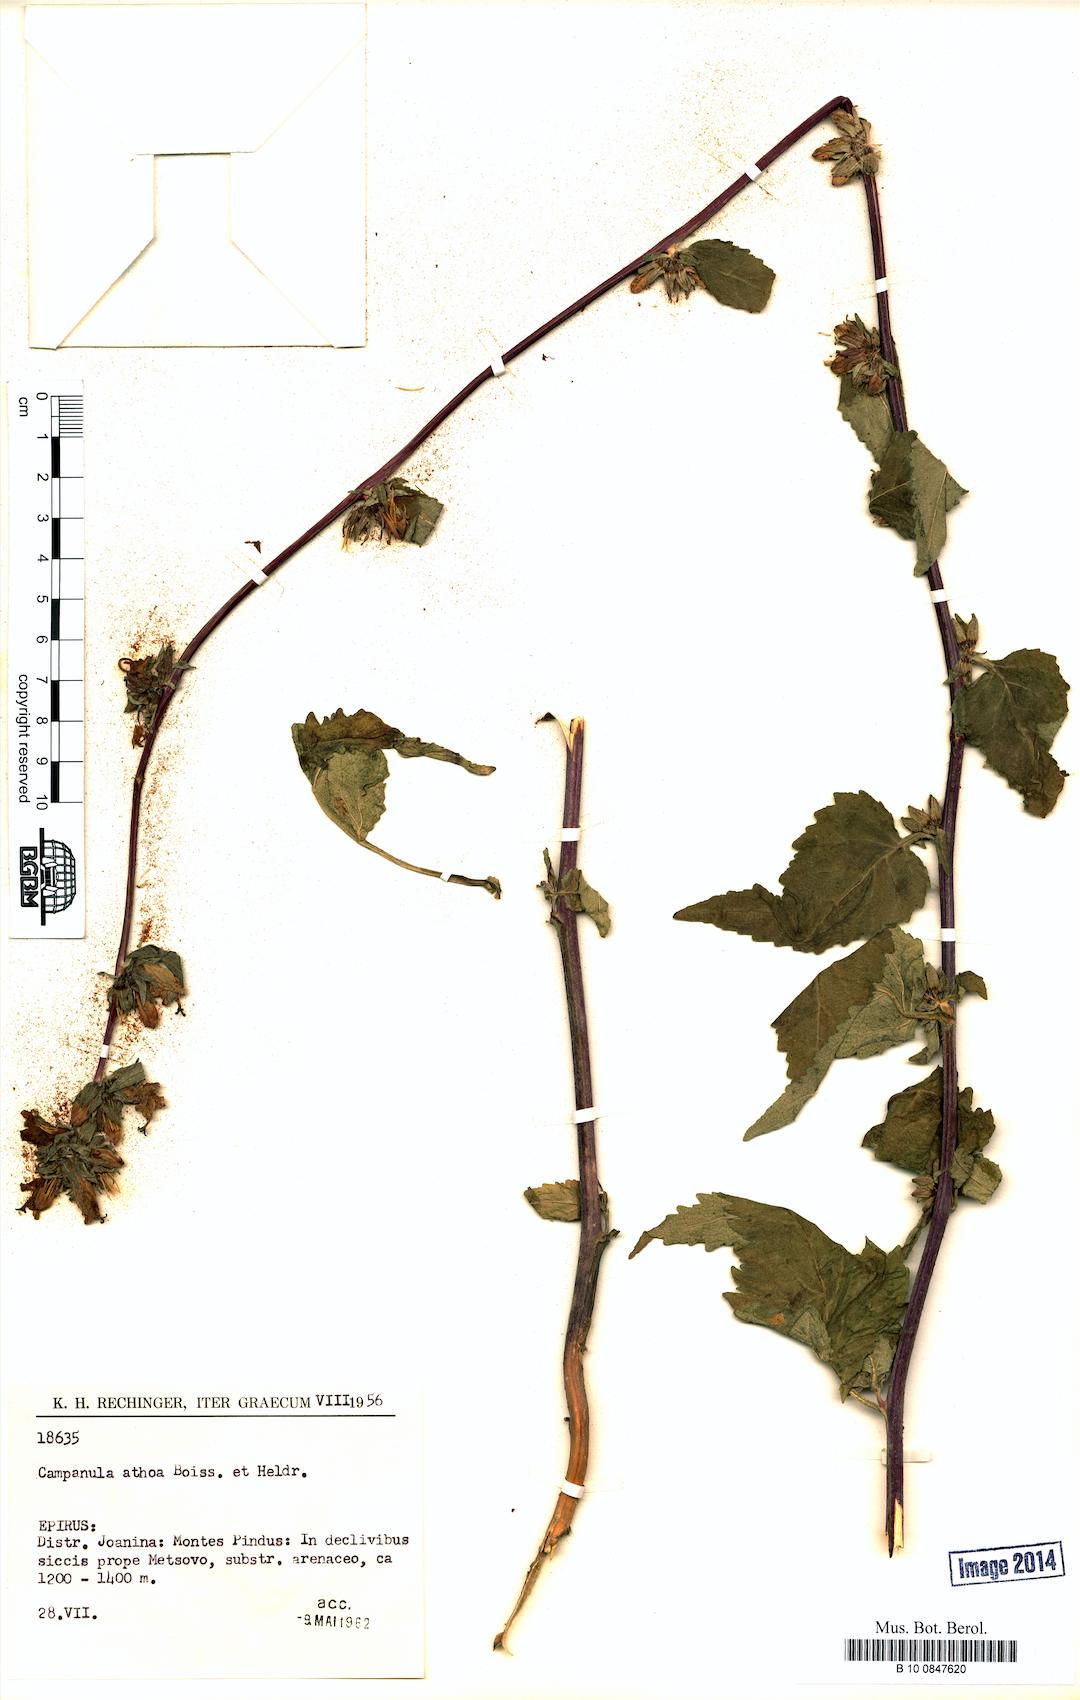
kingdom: Plantae
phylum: Tracheophyta
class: Magnoliopsida
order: Asterales
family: Campanulaceae
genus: Campanula
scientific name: Campanula trachelium
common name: Nettle-leaved bellflower
